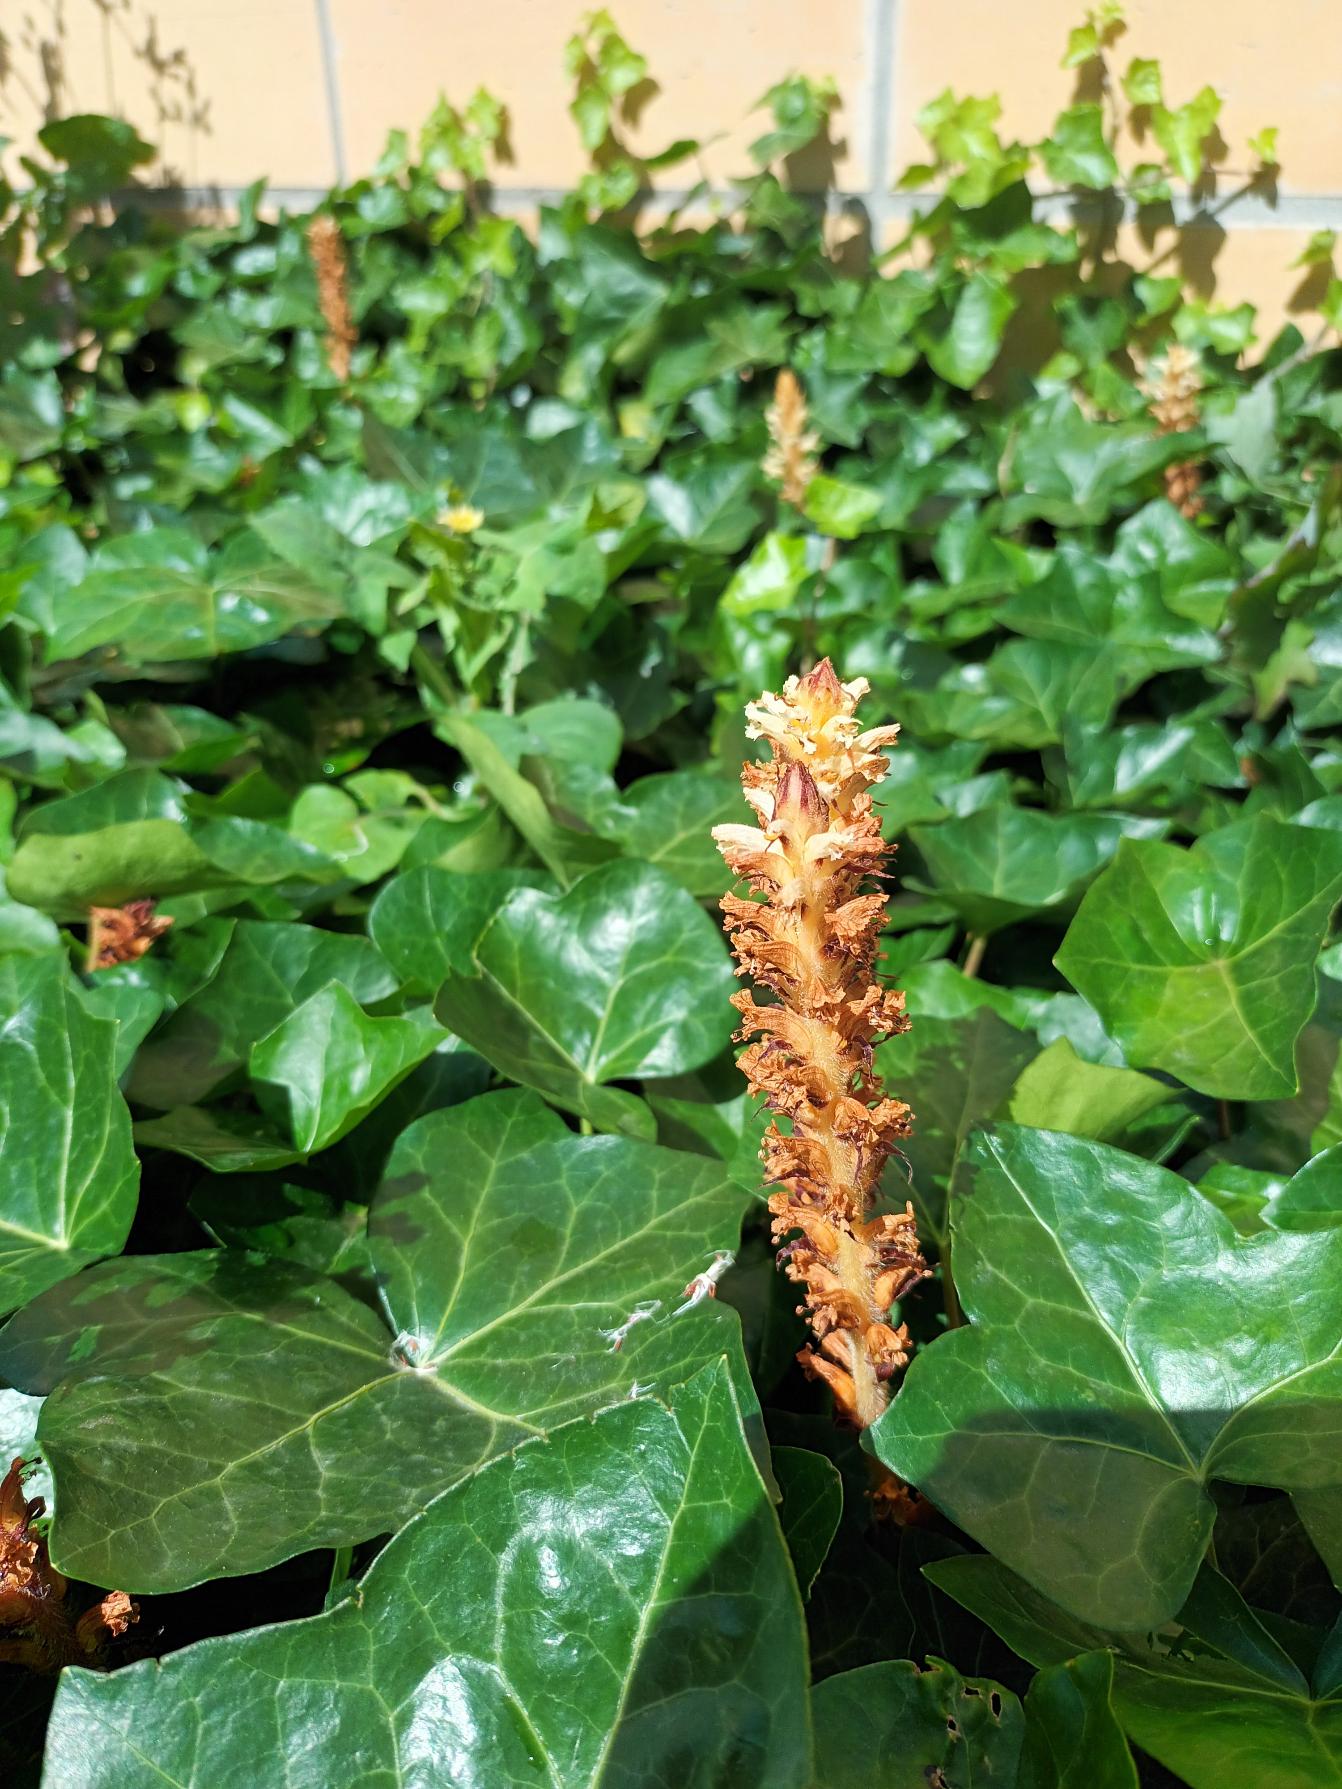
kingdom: Plantae
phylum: Tracheophyta
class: Magnoliopsida
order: Lamiales
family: Orobanchaceae
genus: Orobanche
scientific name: Orobanche hederae
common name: Vedbend-gyvelkvæler
